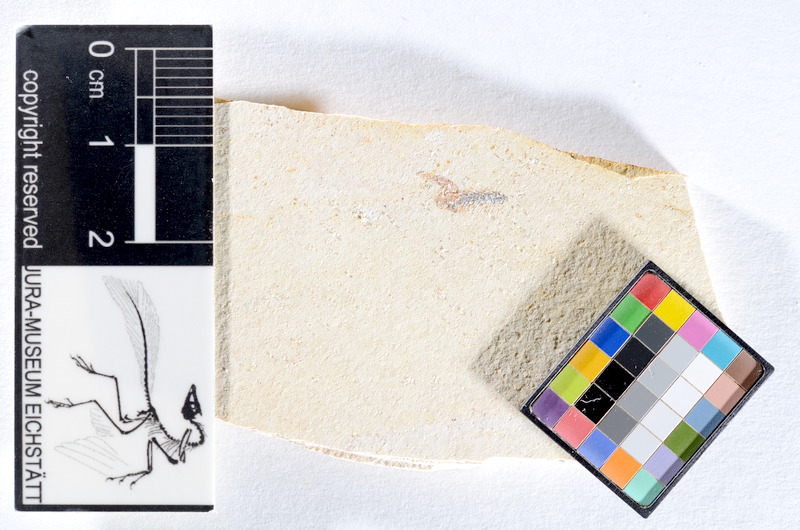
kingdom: Animalia
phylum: Chordata
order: Salmoniformes
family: Orthogonikleithridae
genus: Orthogonikleithrus
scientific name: Orthogonikleithrus hoelli
